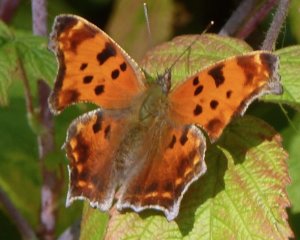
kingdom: Animalia
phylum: Arthropoda
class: Insecta
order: Lepidoptera
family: Nymphalidae
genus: Polygonia
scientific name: Polygonia comma
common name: Eastern Comma
